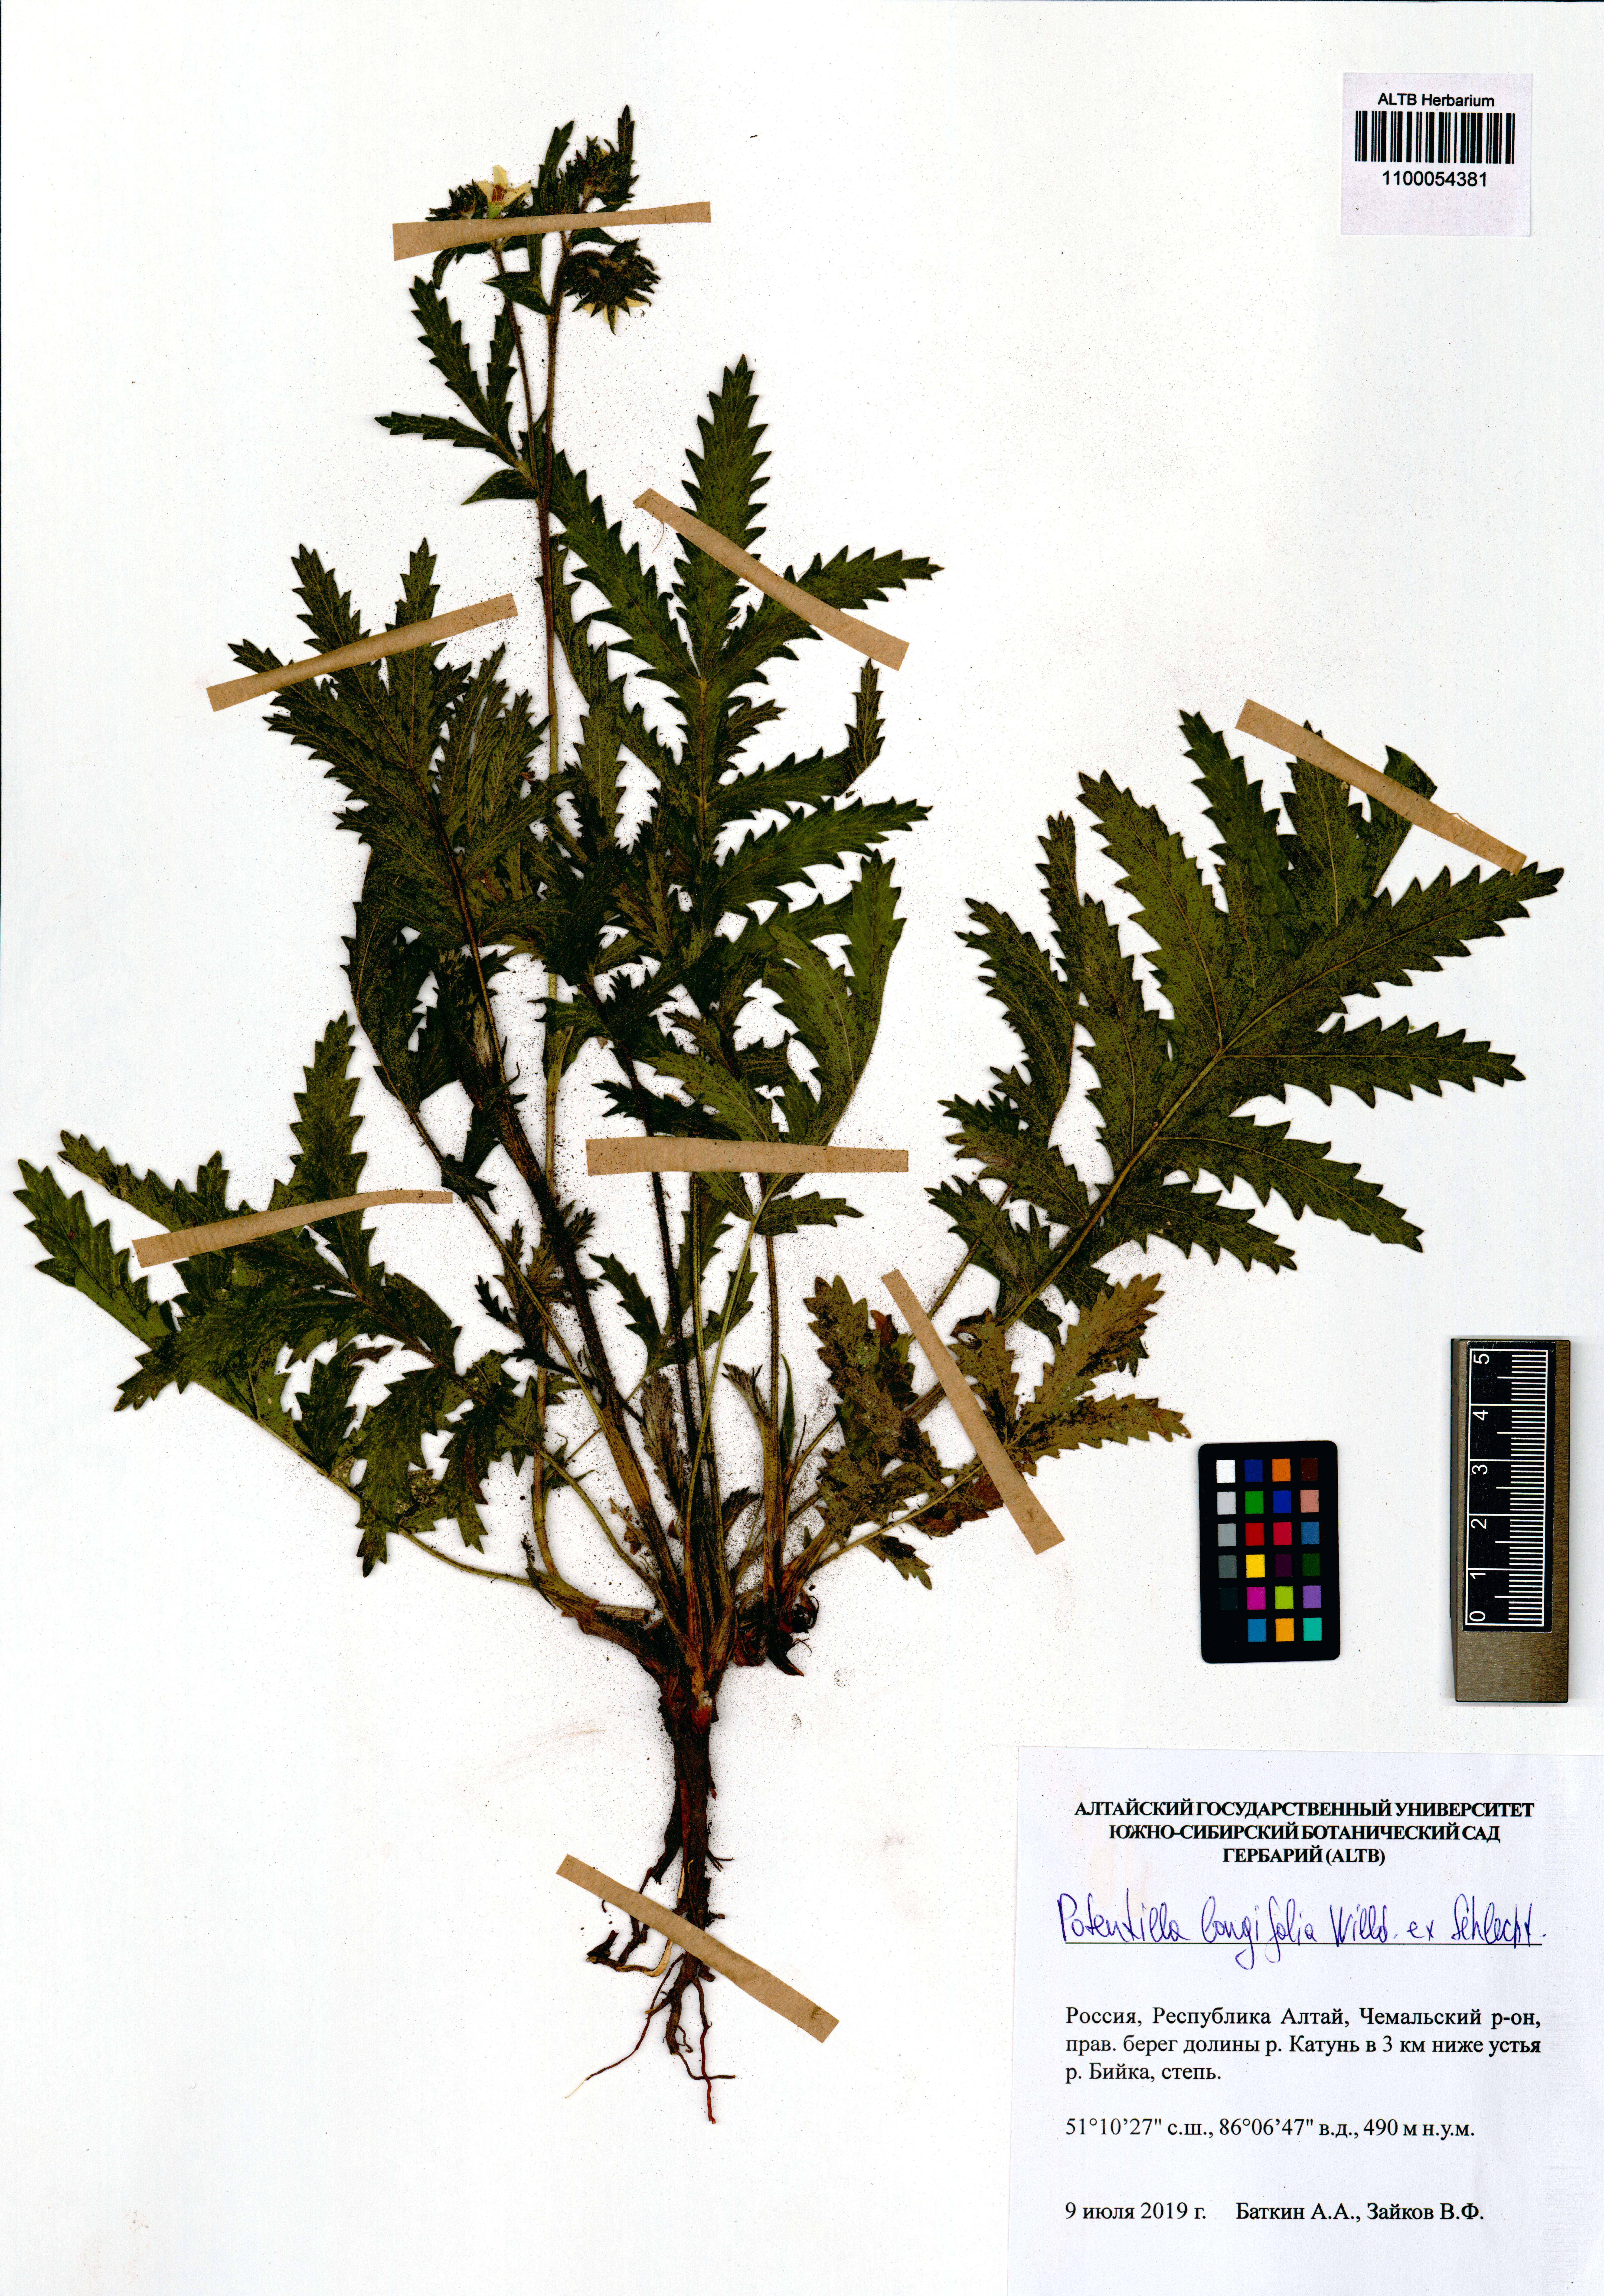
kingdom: Plantae
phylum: Tracheophyta
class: Magnoliopsida
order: Rosales
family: Rosaceae
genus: Potentilla
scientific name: Potentilla longifolia
